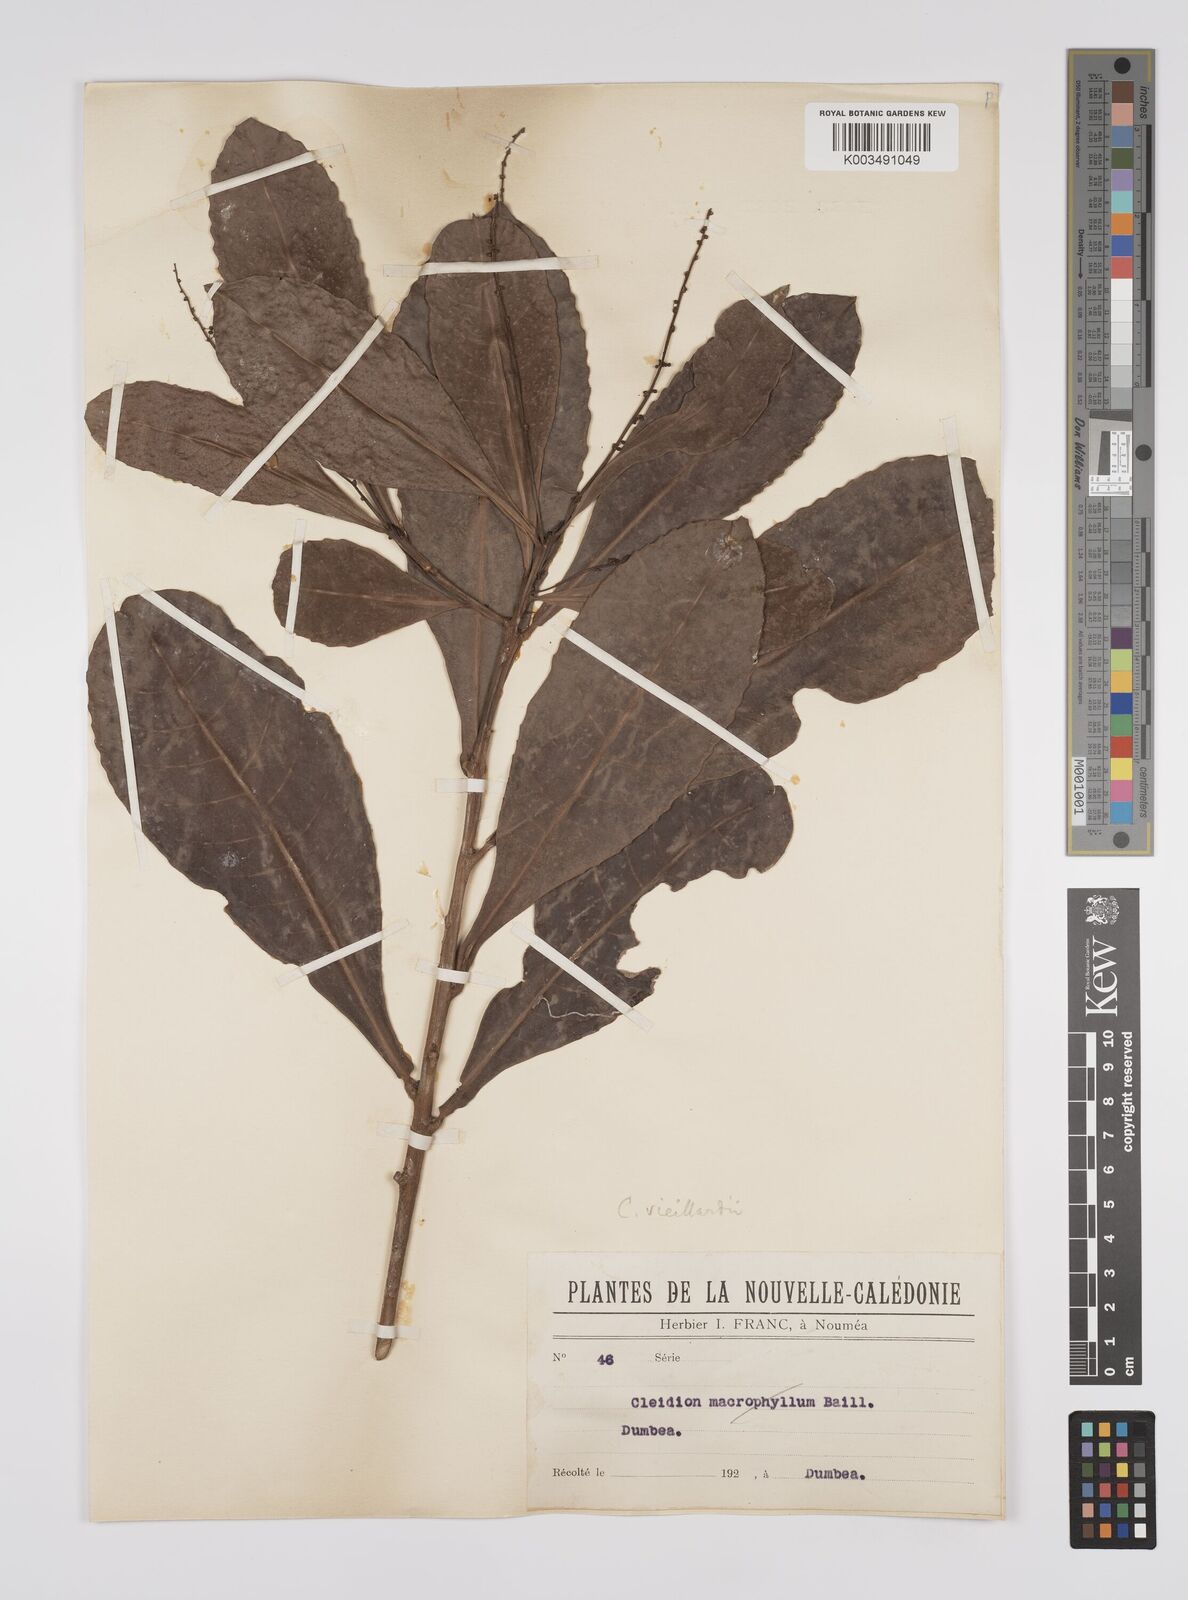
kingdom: Plantae
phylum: Tracheophyta
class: Magnoliopsida
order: Malpighiales
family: Euphorbiaceae
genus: Cleidion
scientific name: Cleidion vieillardii
